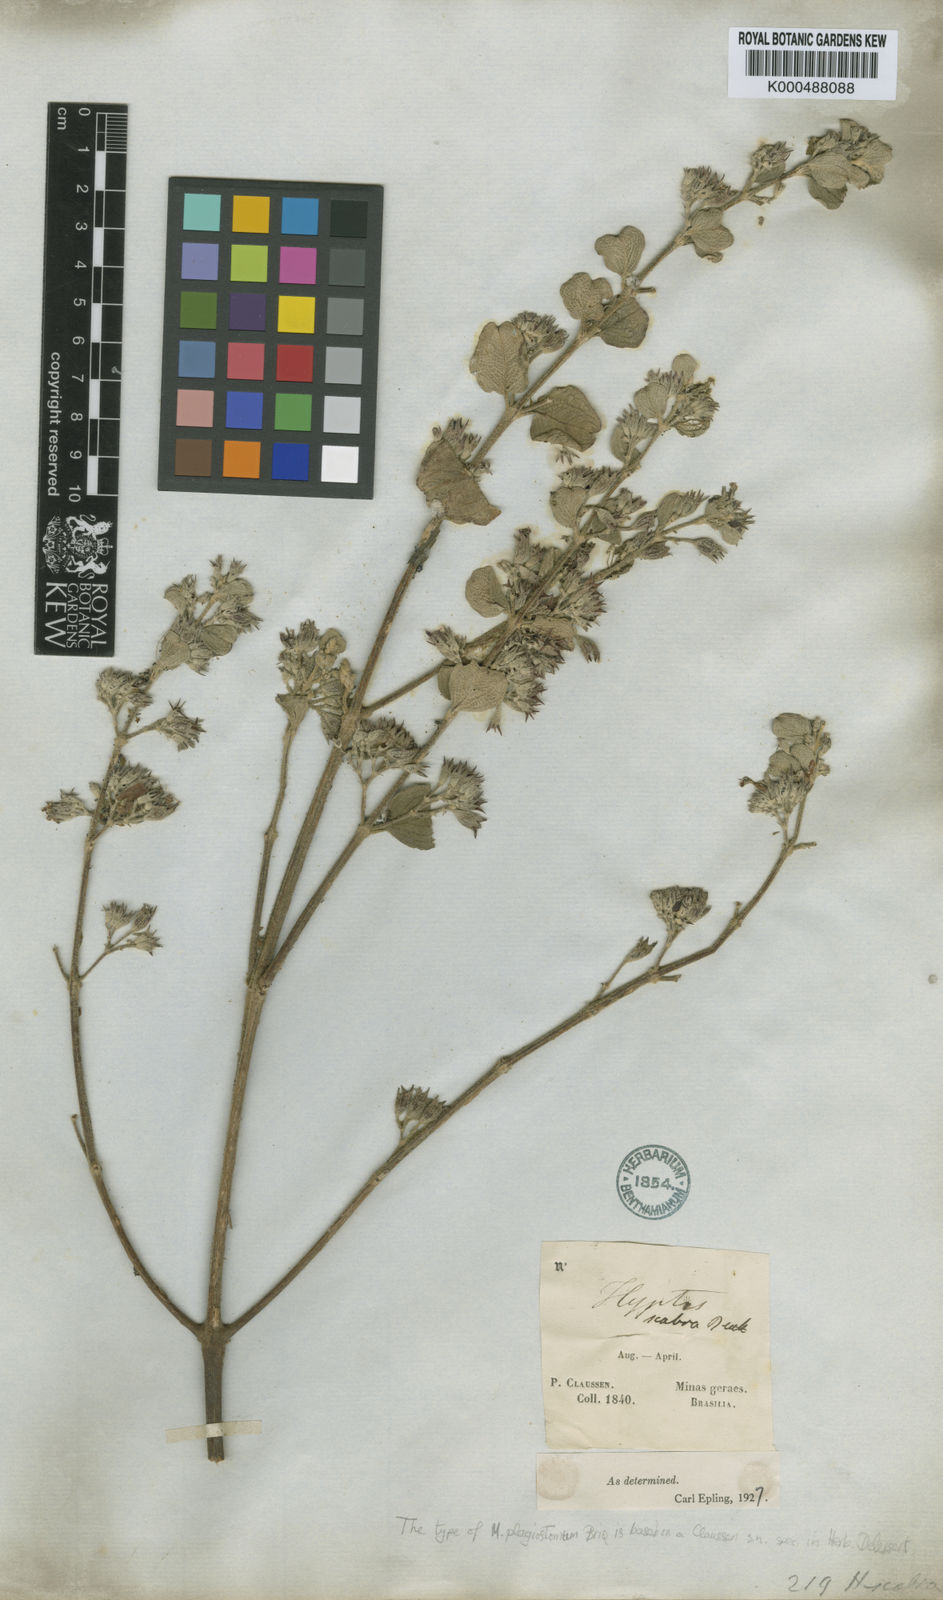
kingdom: Plantae
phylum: Tracheophyta
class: Magnoliopsida
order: Lamiales
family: Lamiaceae
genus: Hyptidendron
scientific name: Hyptidendron canum
